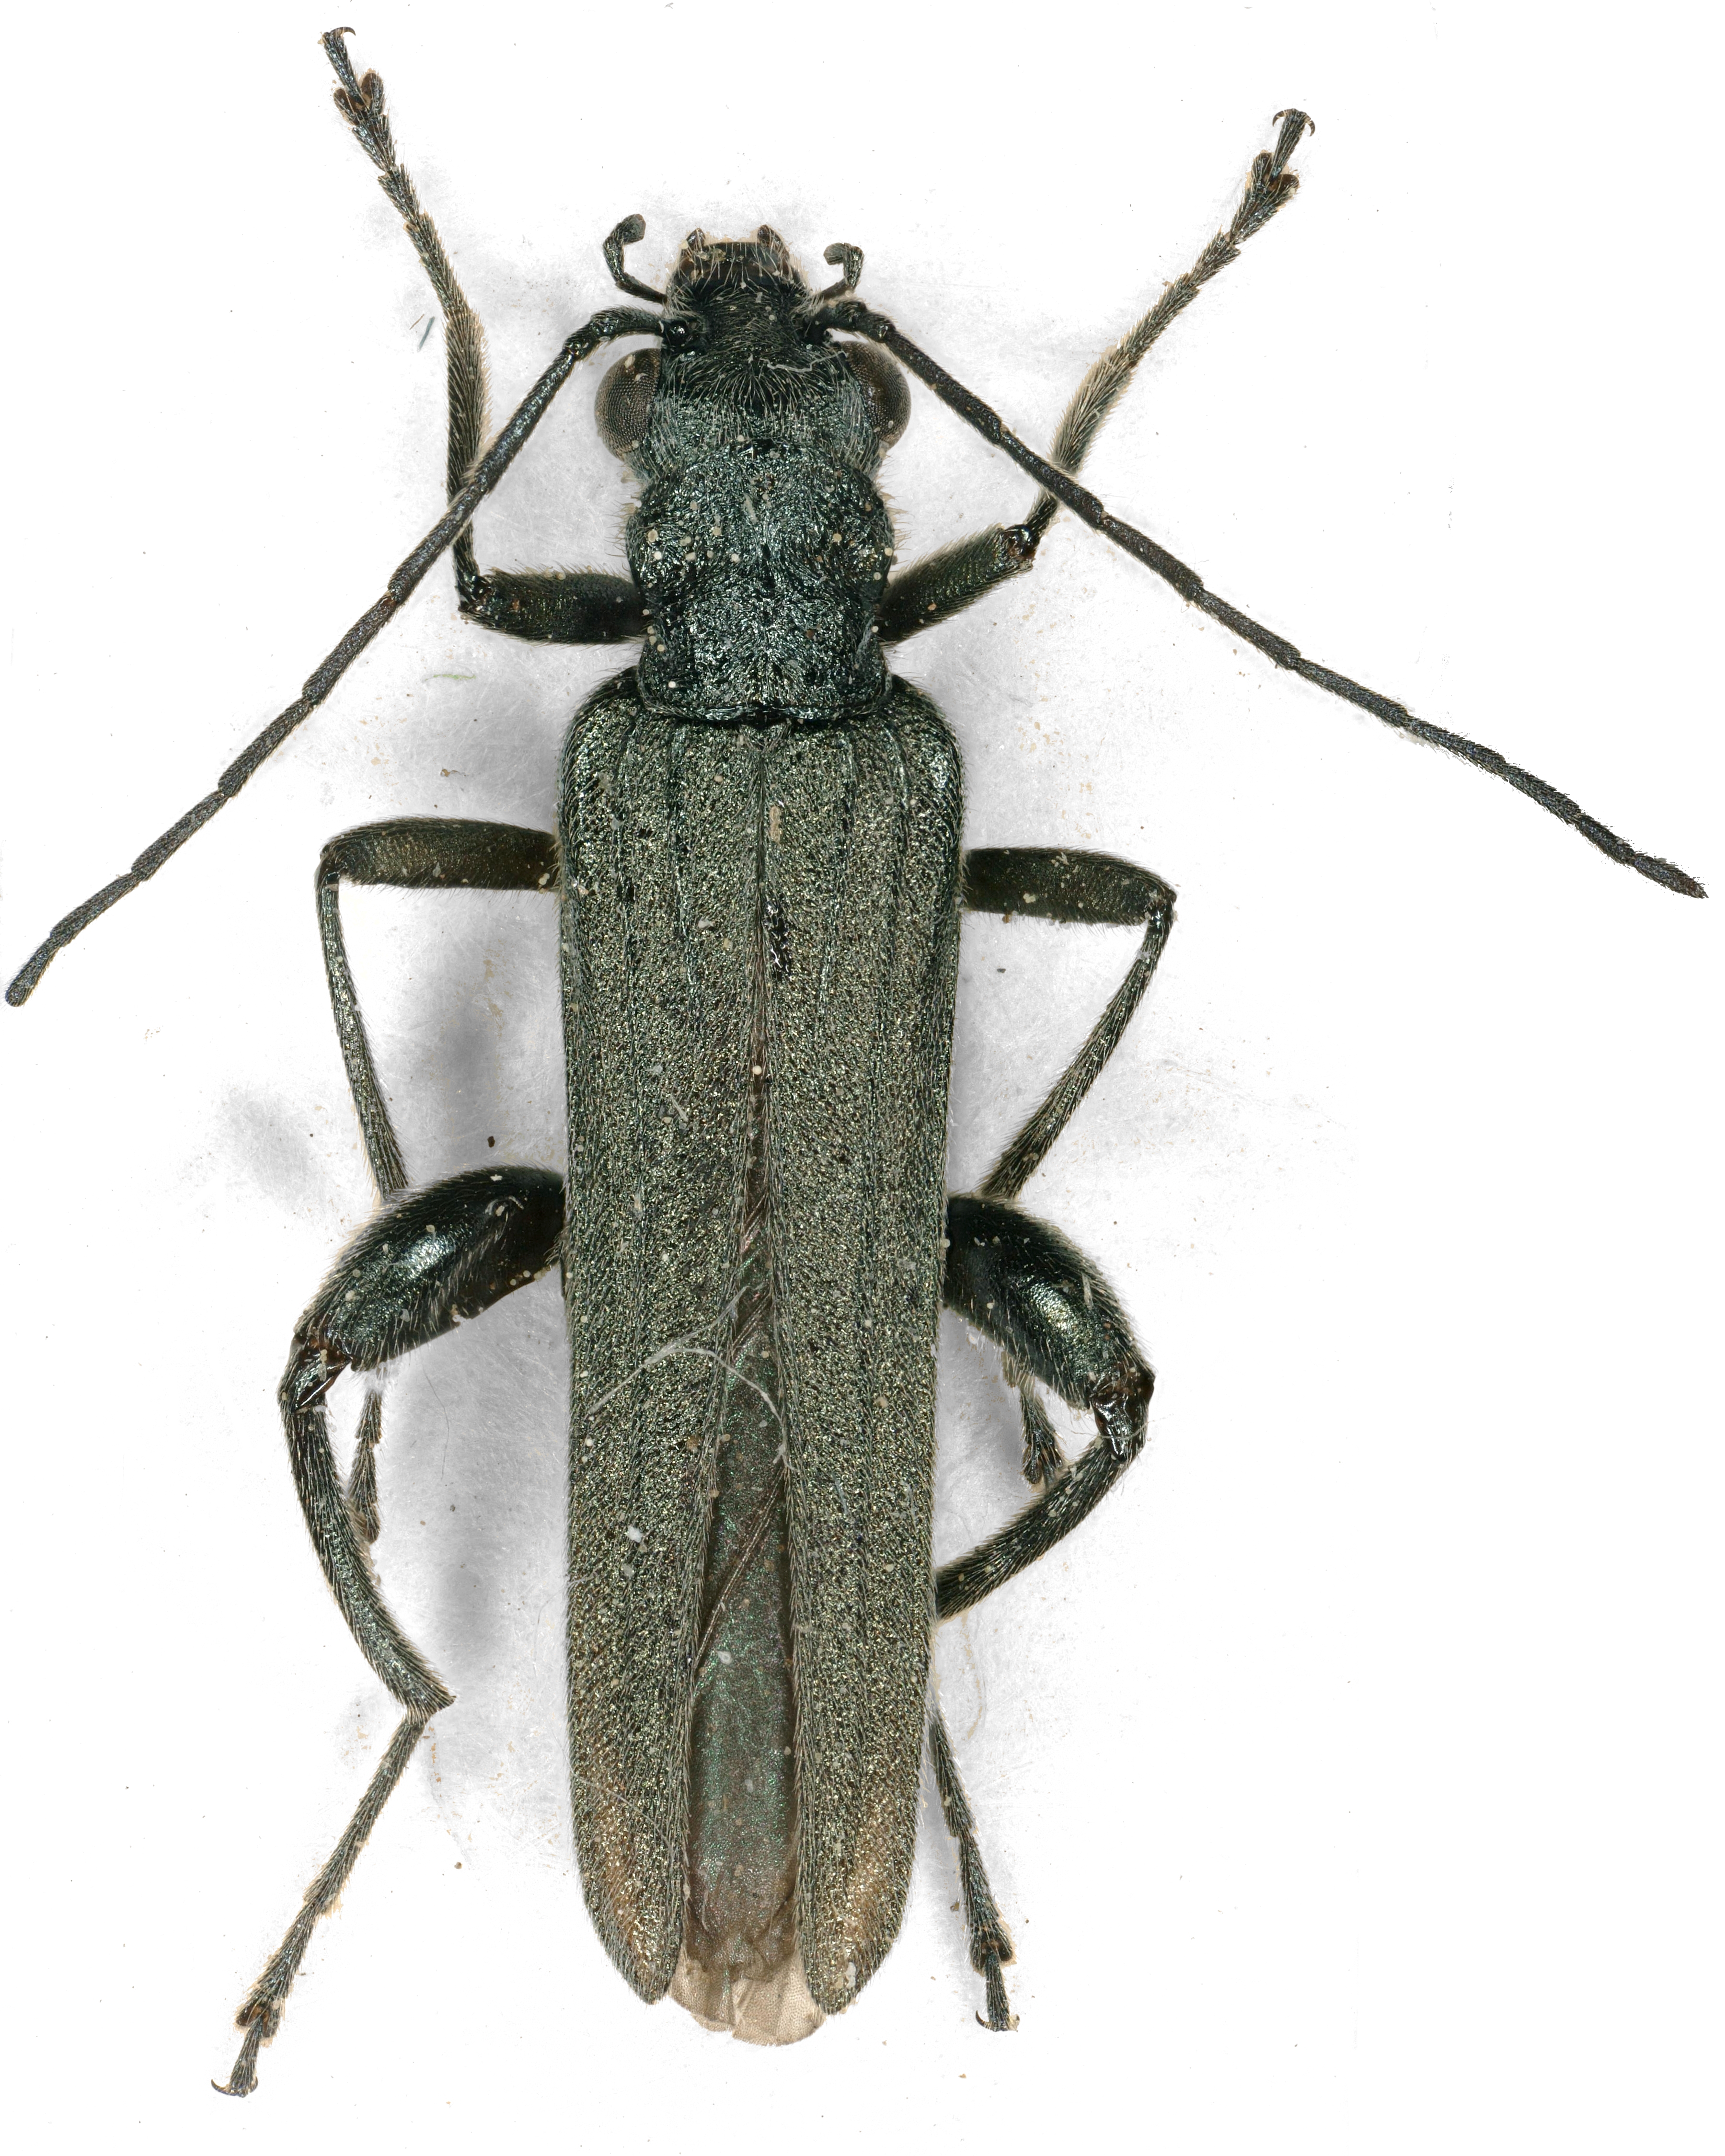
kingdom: Animalia
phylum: Arthropoda
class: Insecta
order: Coleoptera
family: Oedemeridae
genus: Oedemera
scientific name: Oedemera virescens
